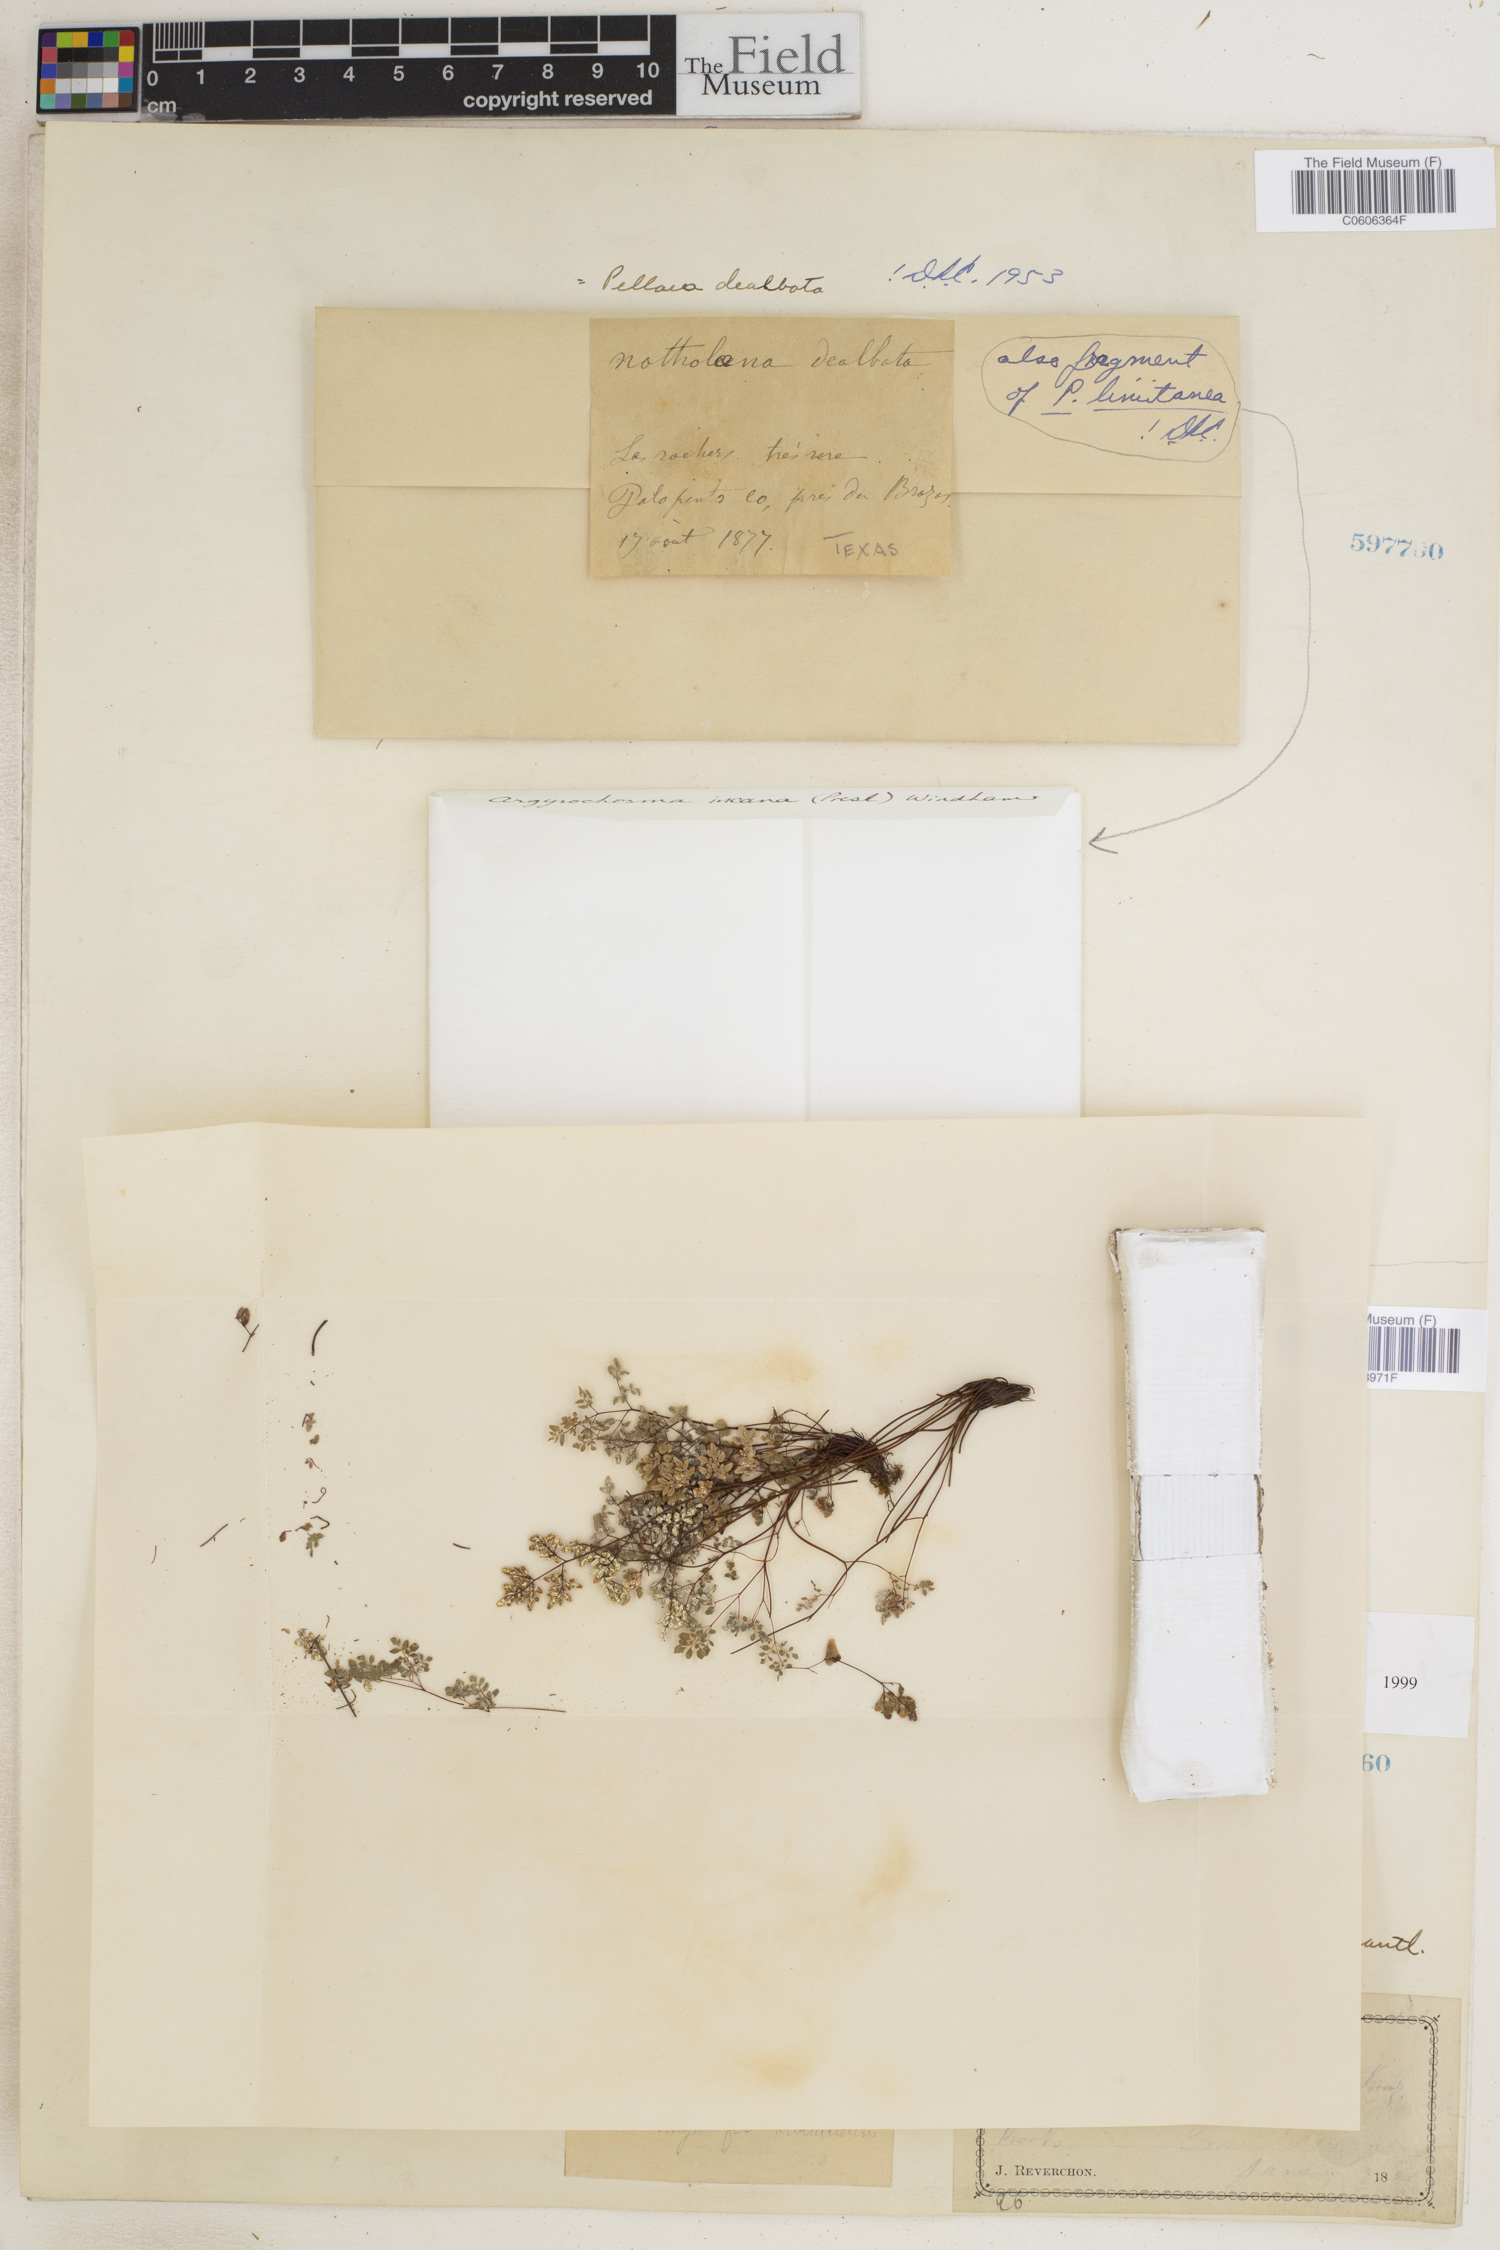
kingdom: Plantae
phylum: Tracheophyta
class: Polypodiopsida
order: Polypodiales
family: Pteridaceae
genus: Argyrochosma
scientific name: Argyrochosma dealbata
